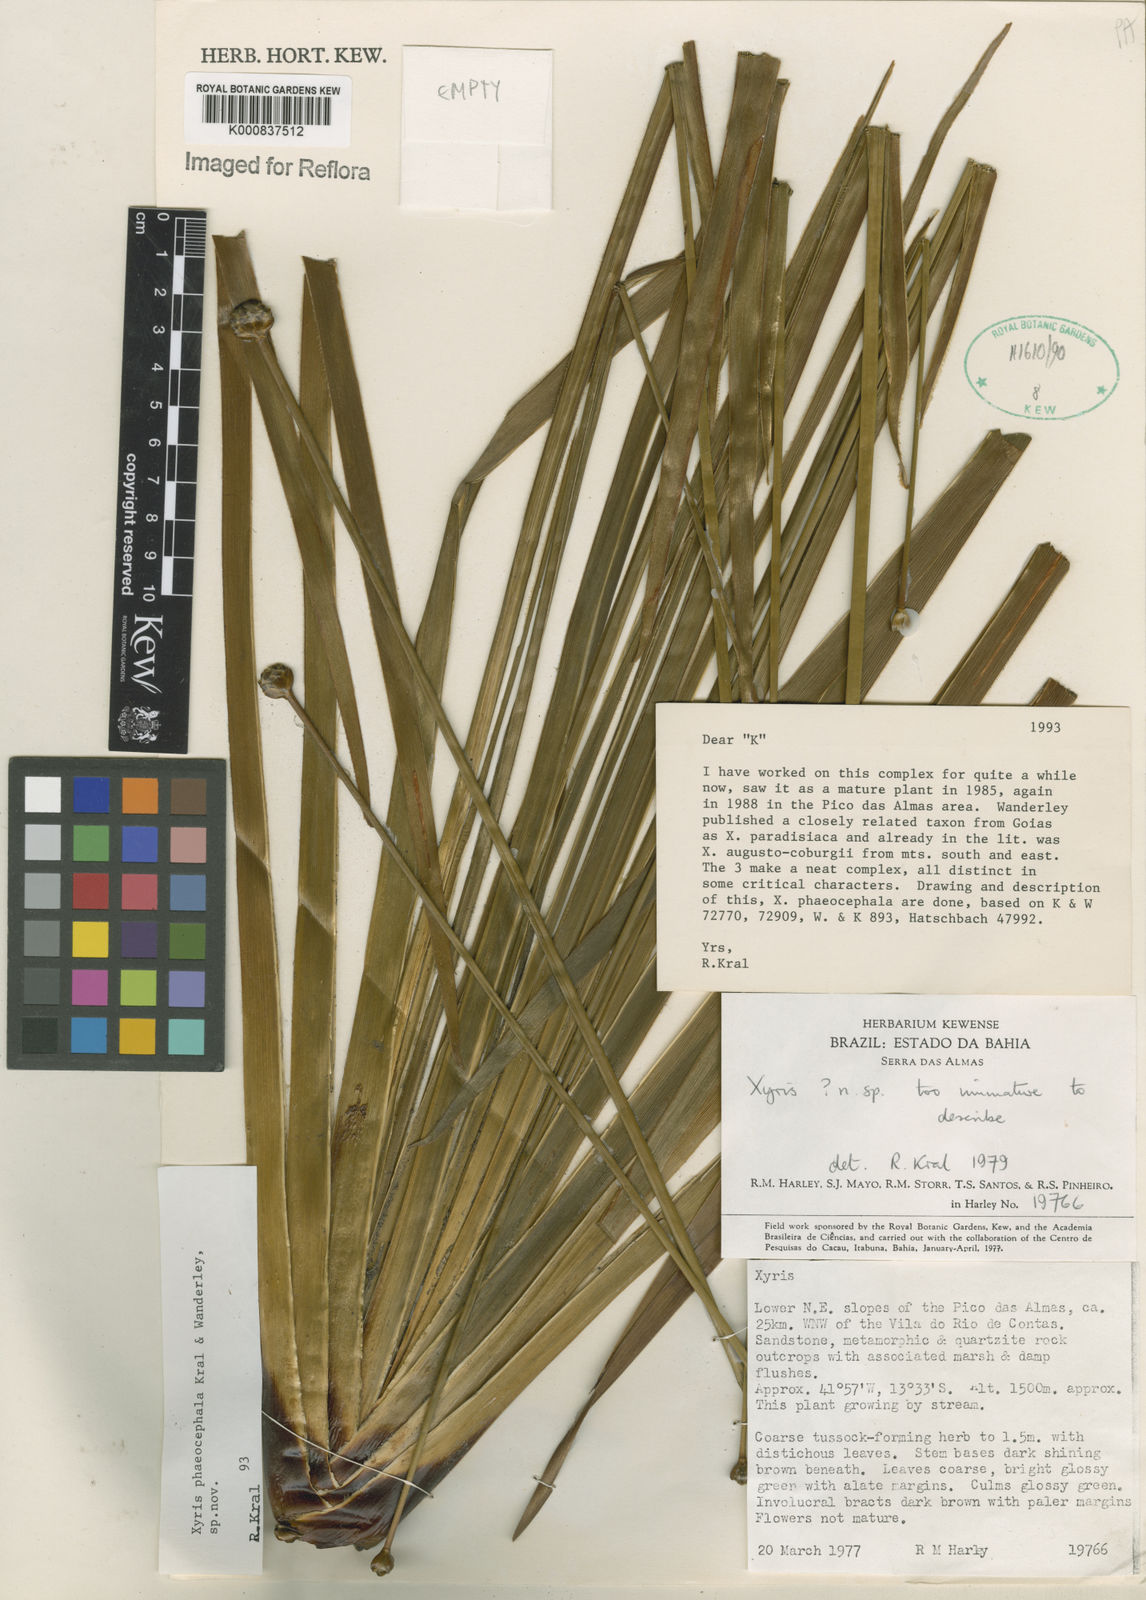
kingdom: Plantae
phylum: Tracheophyta
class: Liliopsida
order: Poales
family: Xyridaceae
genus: Xyris
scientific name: Xyris phaeocephala
